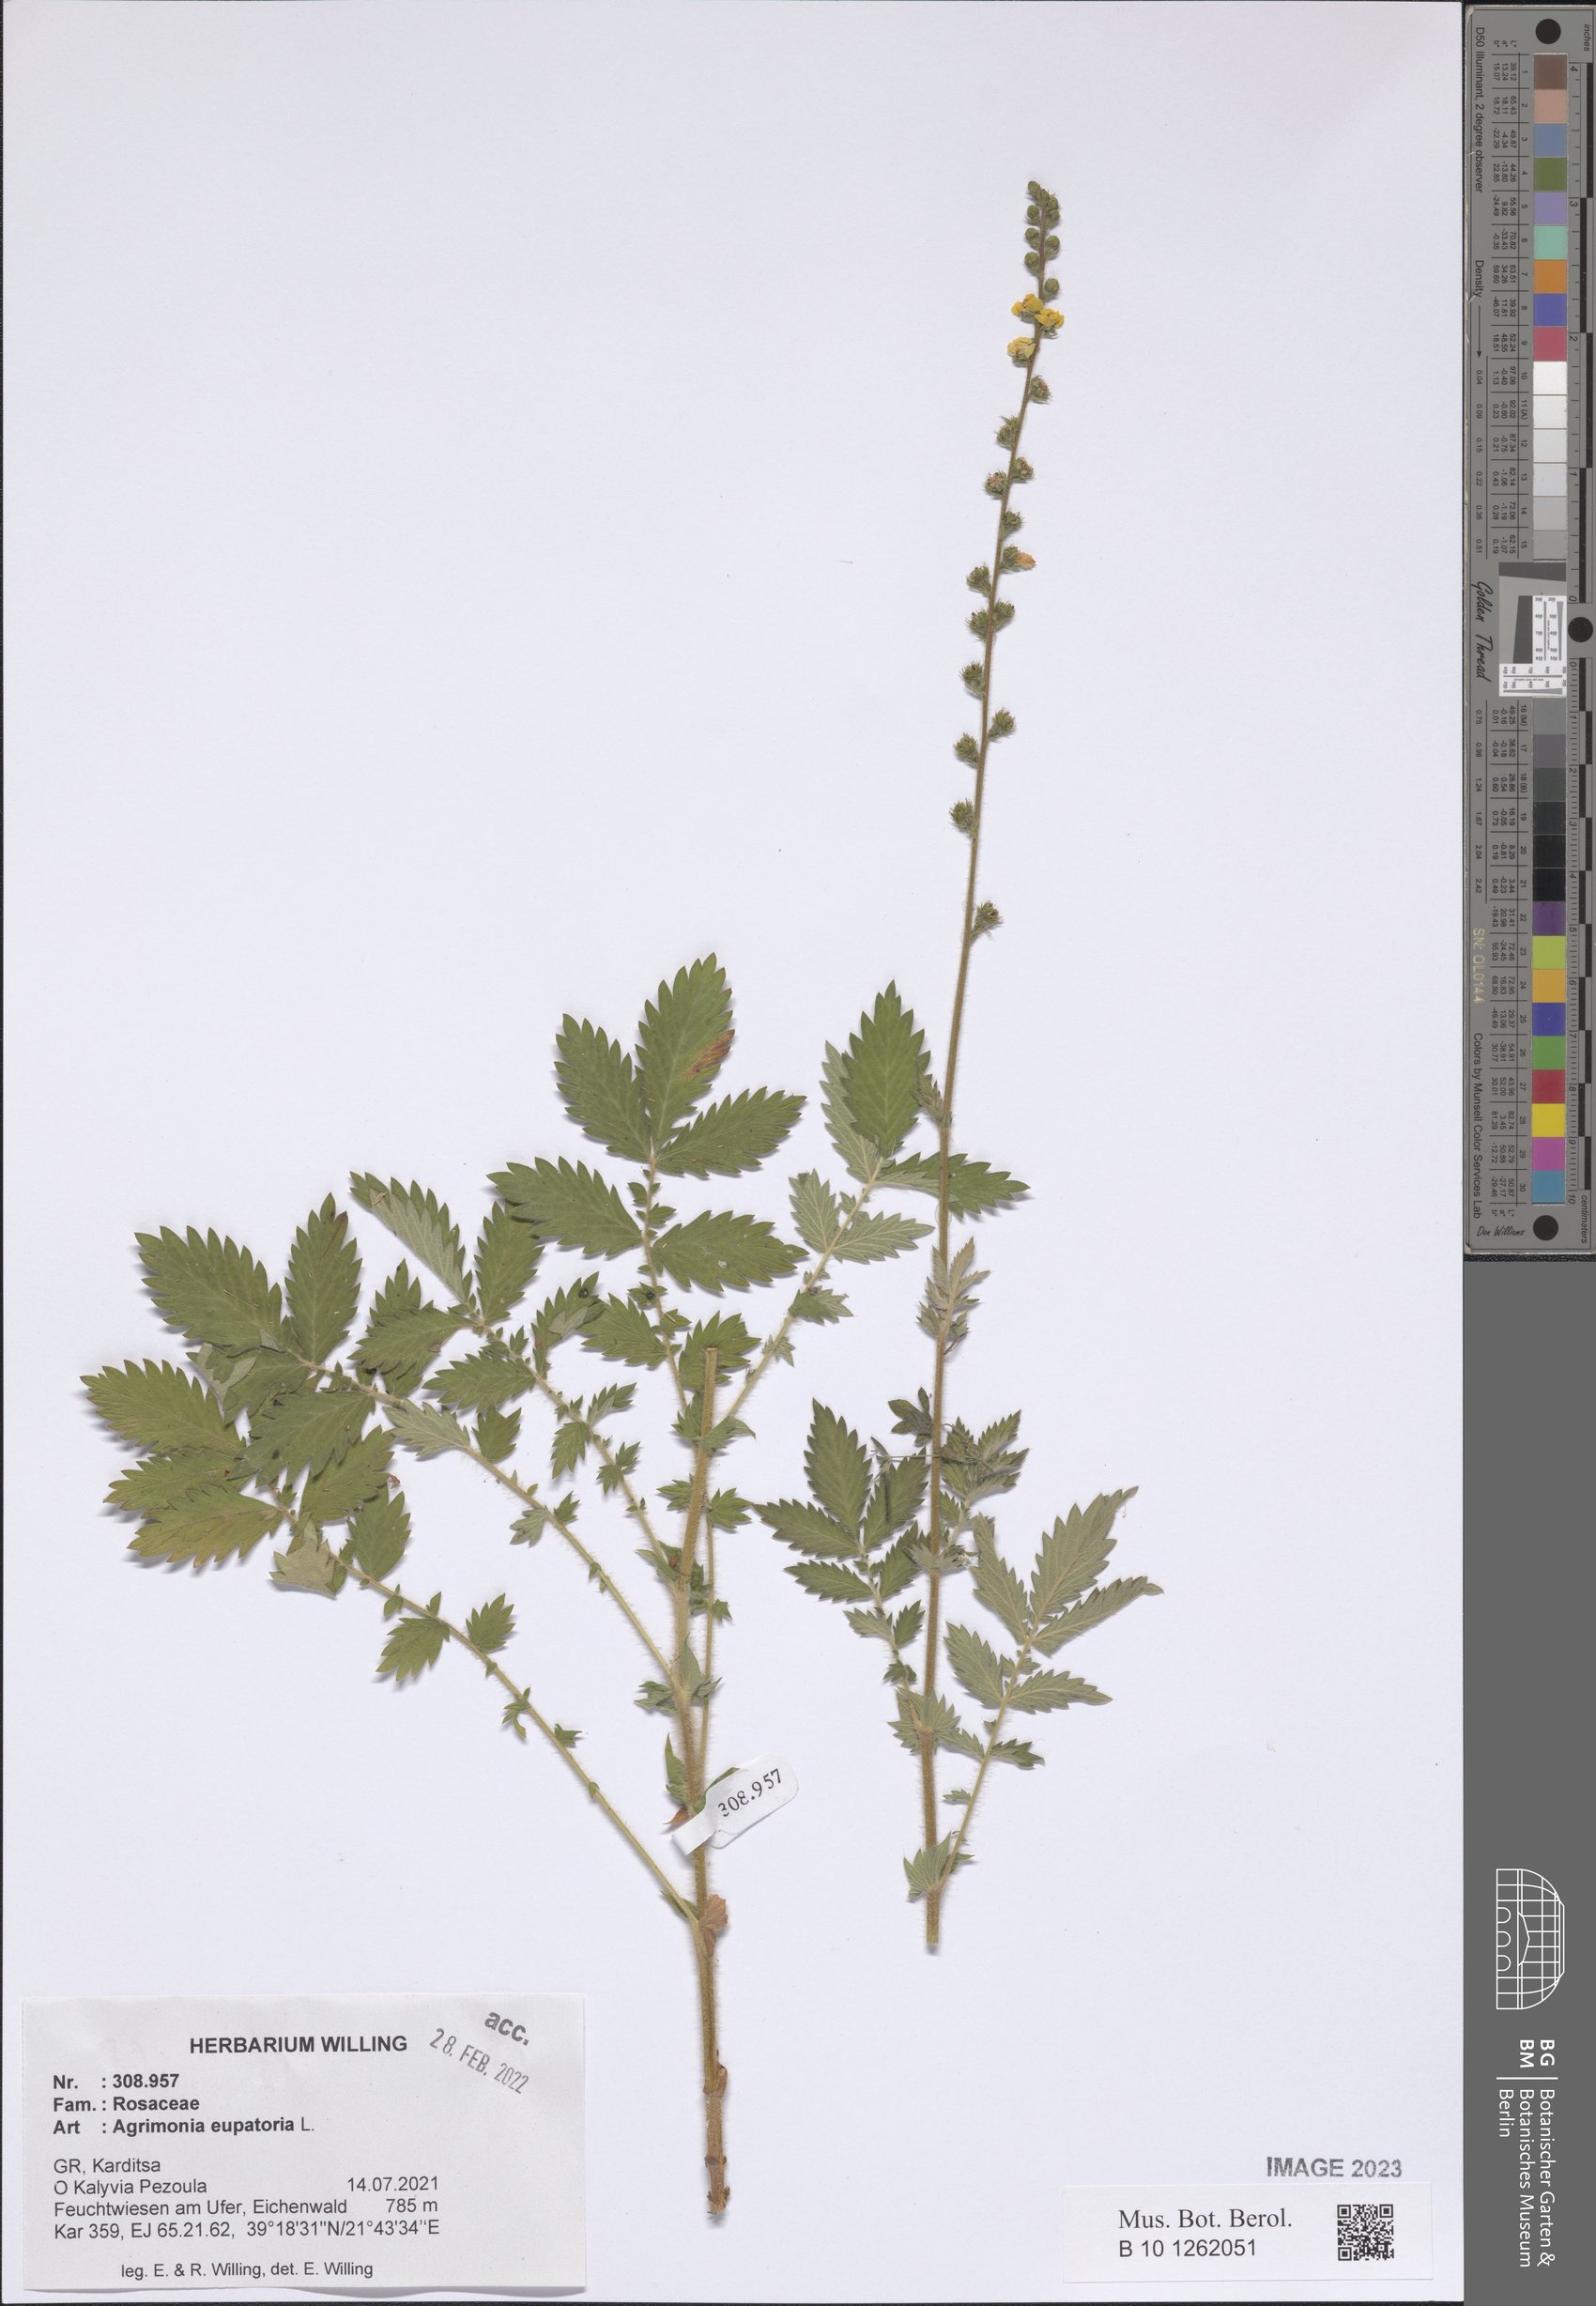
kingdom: Plantae
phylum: Tracheophyta
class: Magnoliopsida
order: Rosales
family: Rosaceae
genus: Agrimonia
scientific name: Agrimonia eupatoria
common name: Agrimony
